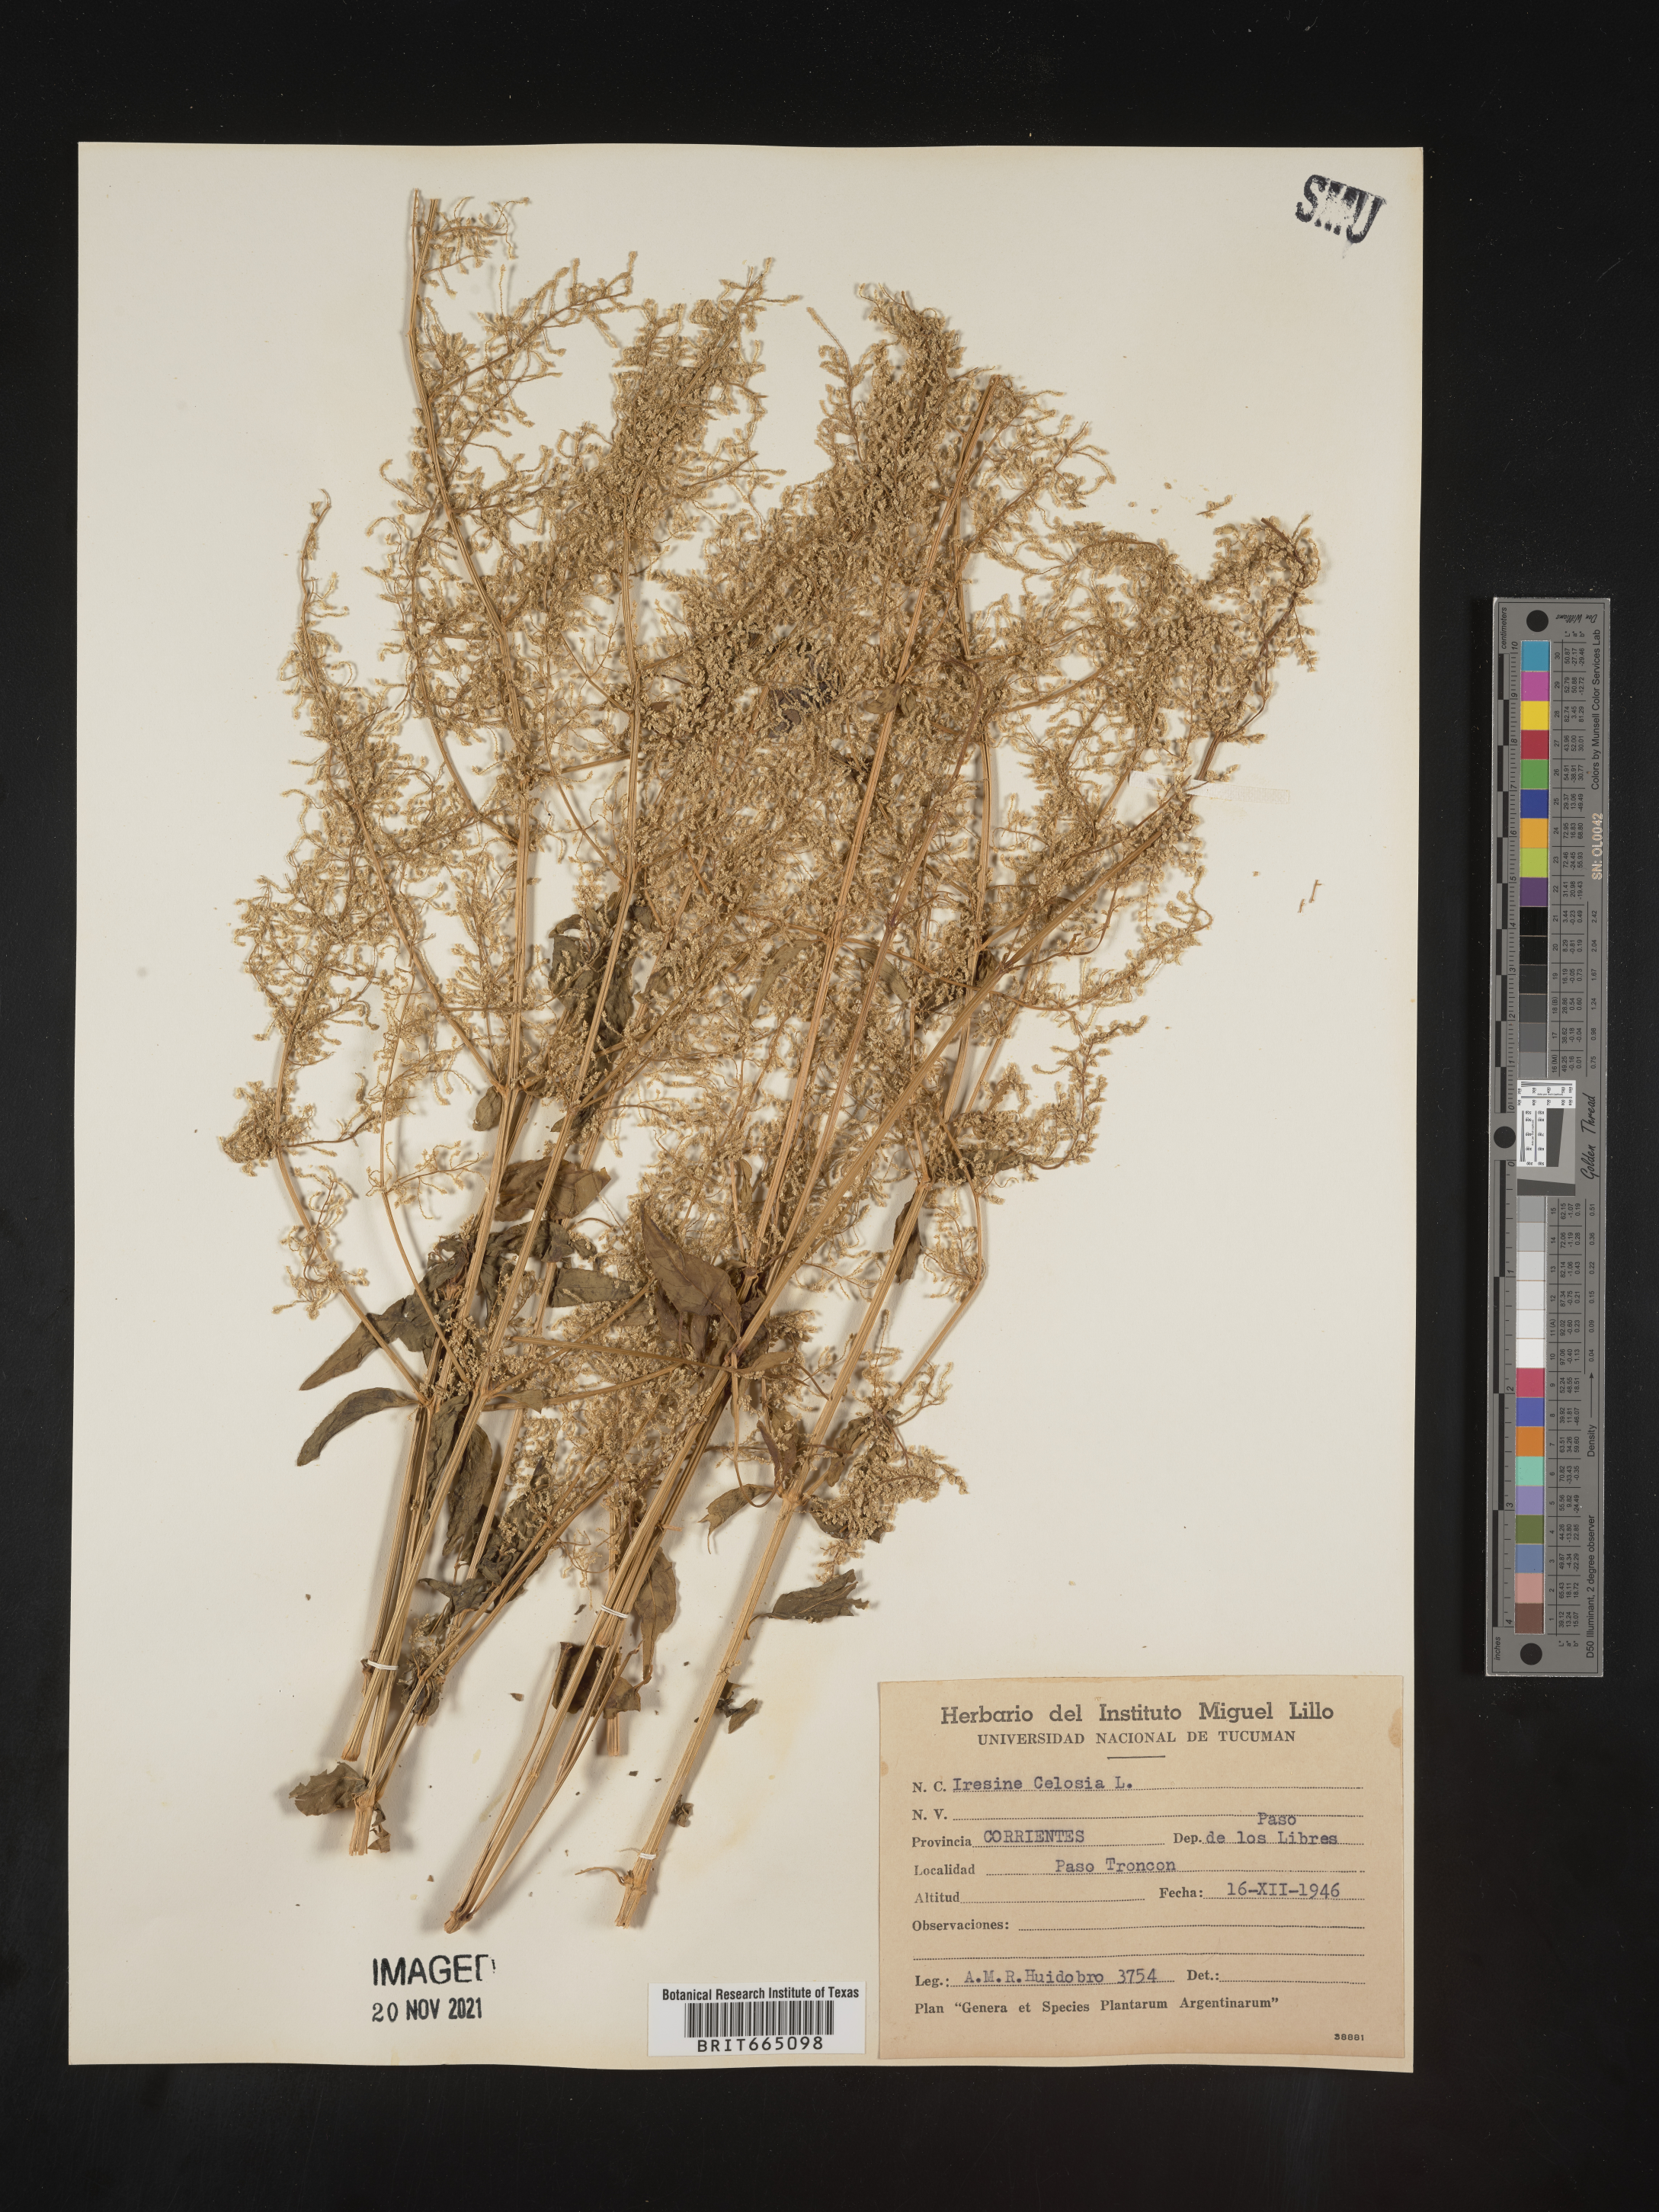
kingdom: Plantae
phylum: Tracheophyta
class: Magnoliopsida
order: Caryophyllales
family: Amaranthaceae
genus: Iresine
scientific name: Iresine
